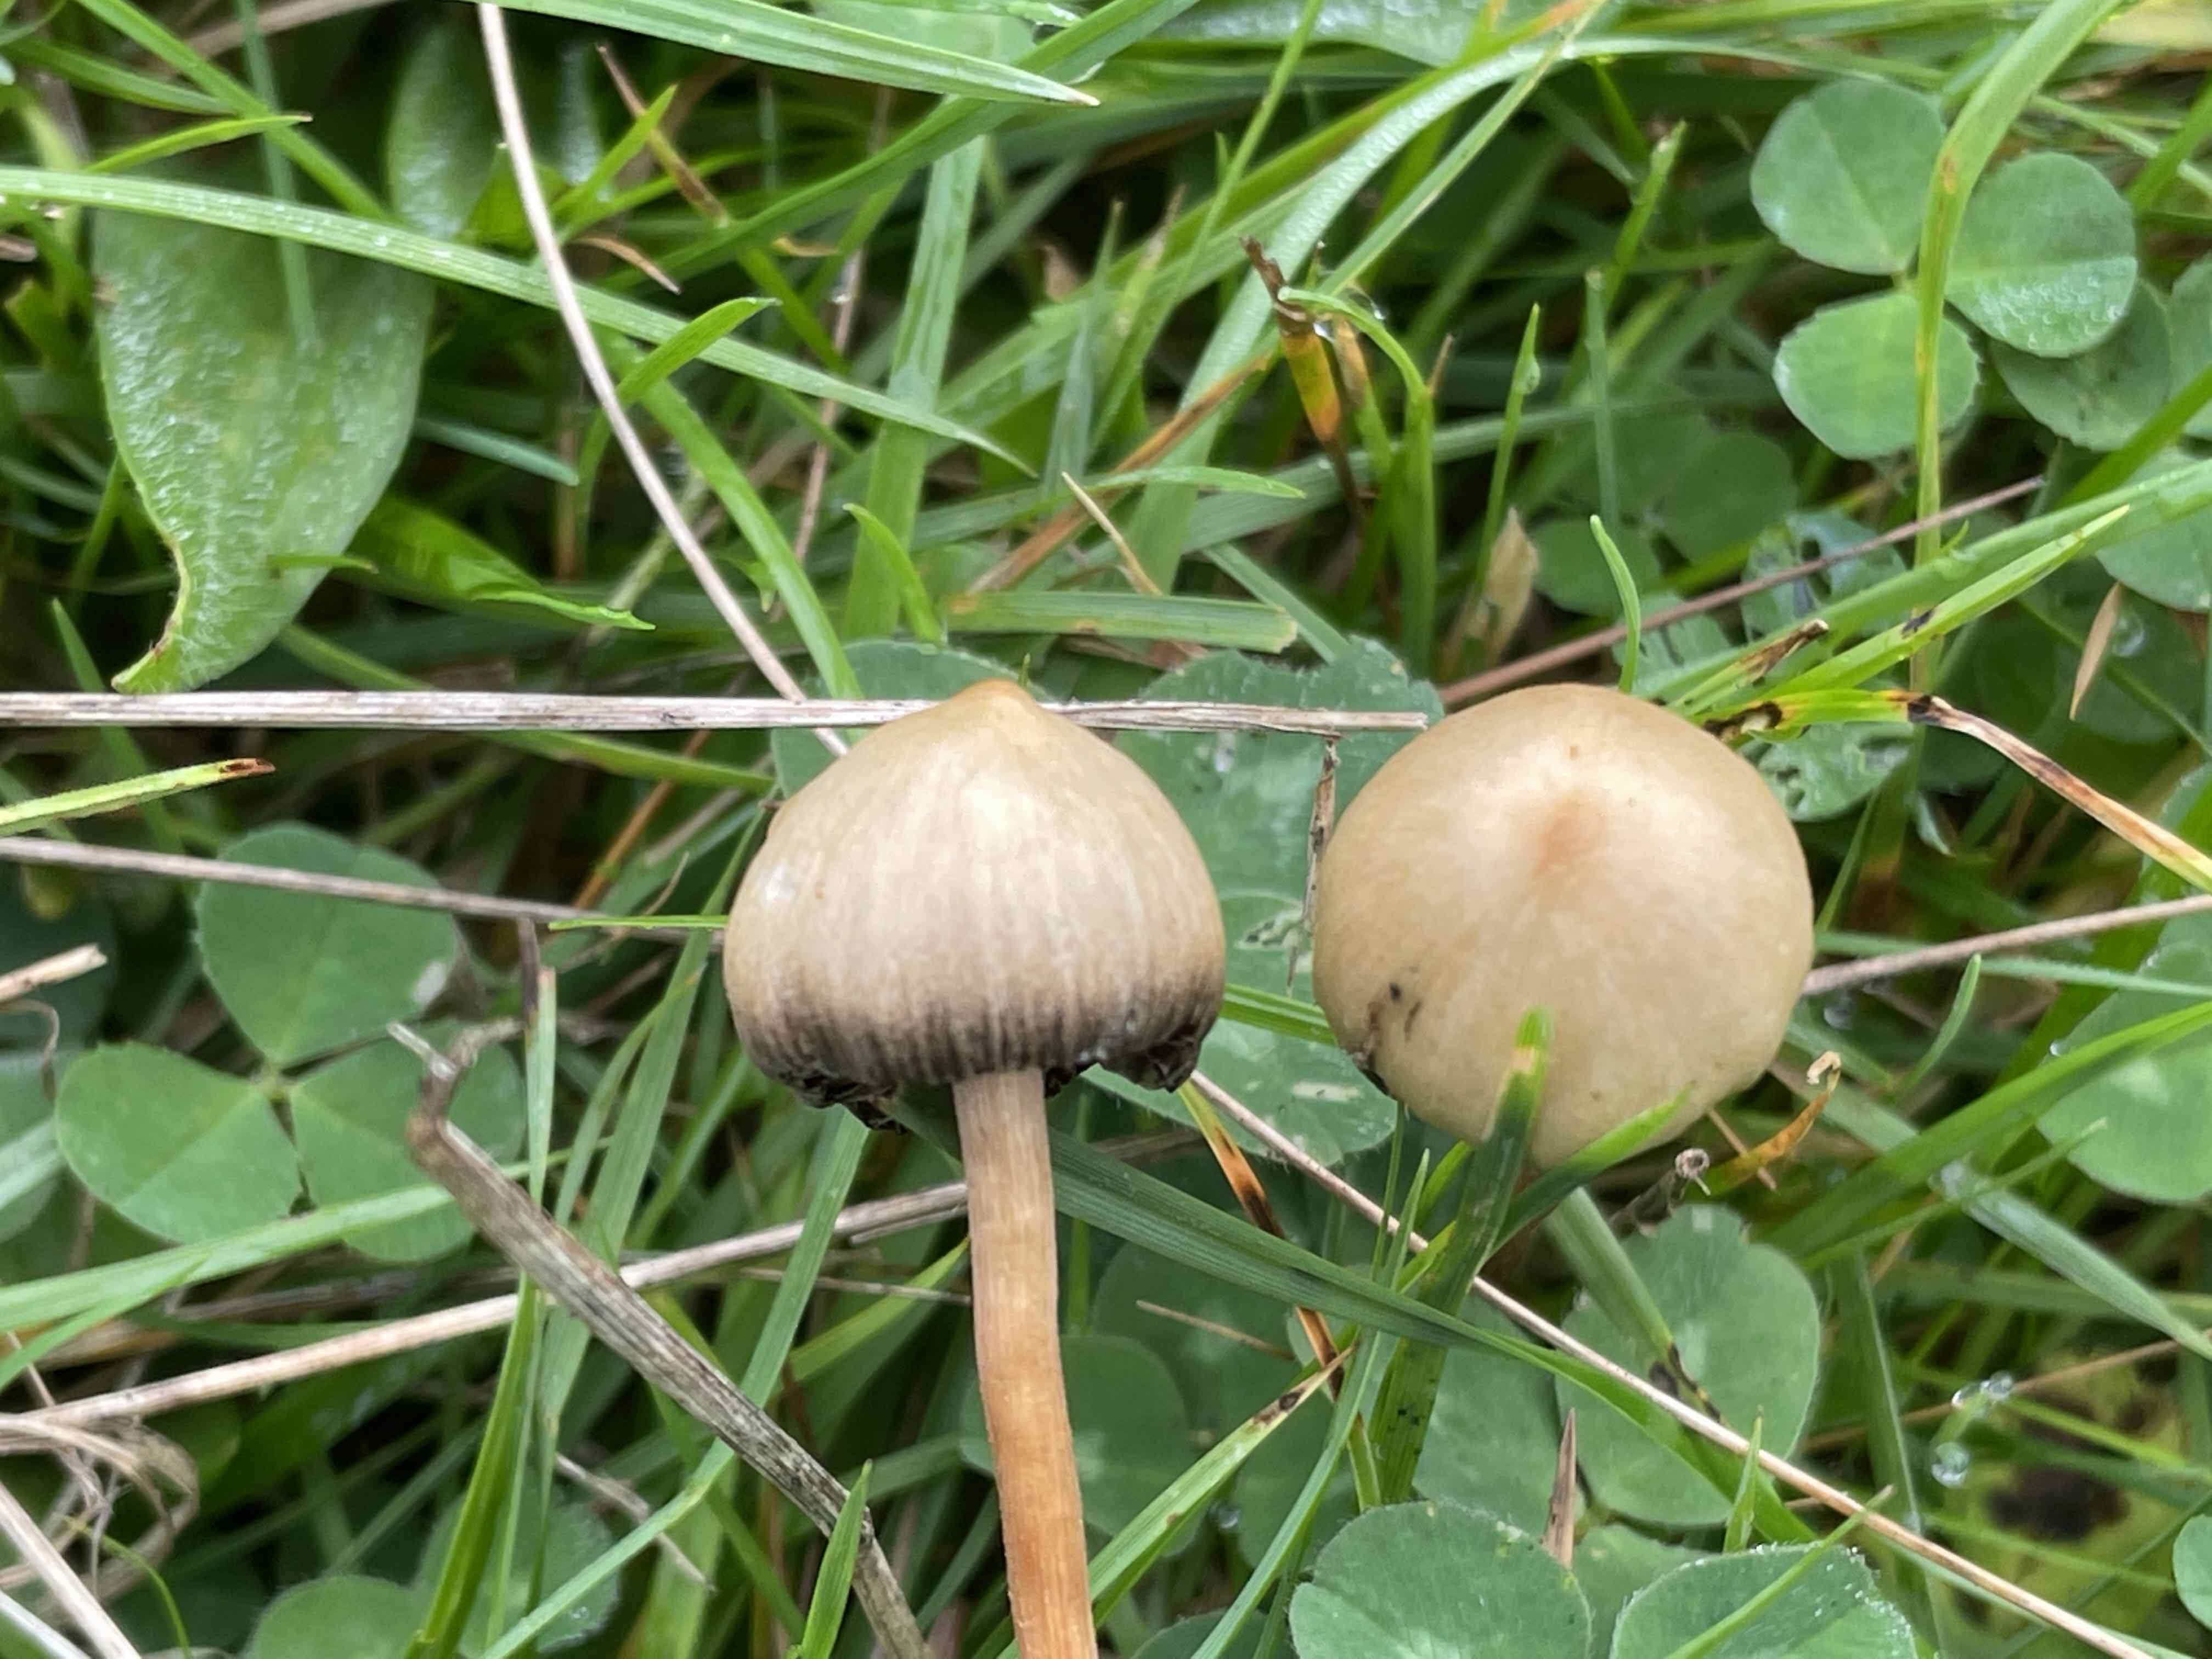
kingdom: Fungi
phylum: Basidiomycota
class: Agaricomycetes
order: Agaricales
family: Hymenogastraceae
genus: Psilocybe
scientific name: Psilocybe semilanceata
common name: spids nøgenhat
